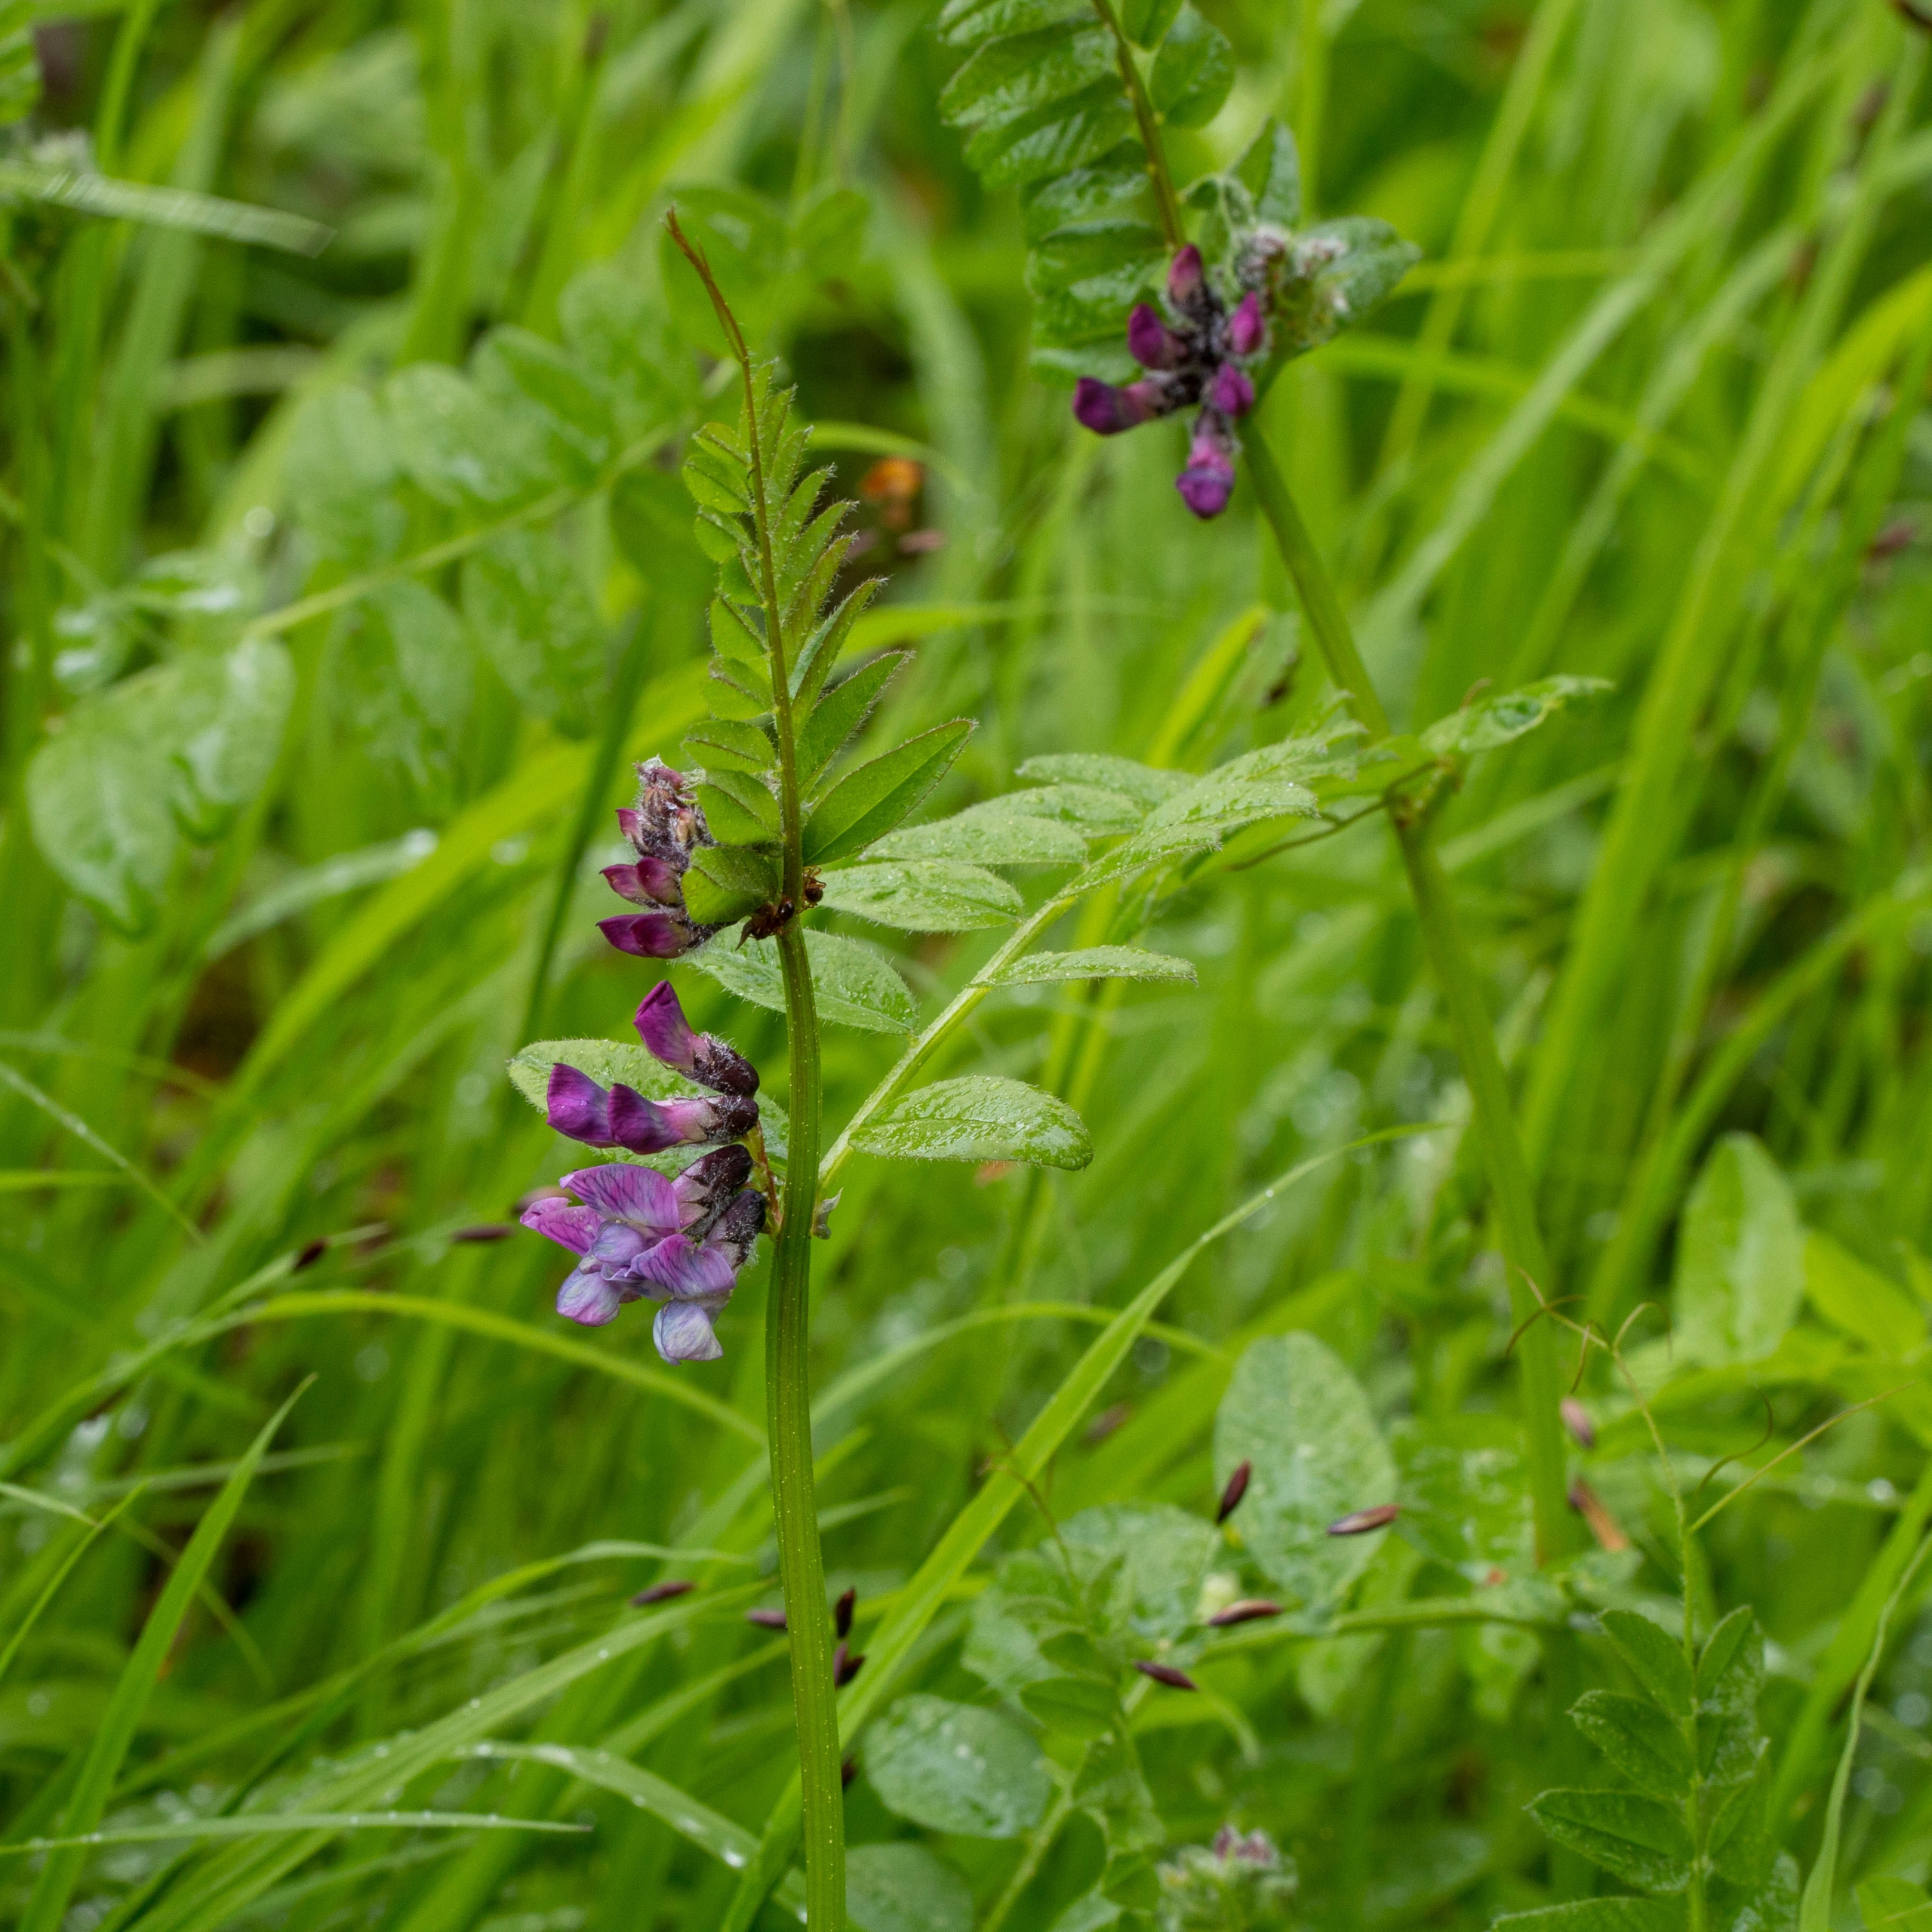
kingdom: Plantae
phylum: Tracheophyta
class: Magnoliopsida
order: Fabales
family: Fabaceae
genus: Vicia
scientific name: Vicia sepium
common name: Gærde-vikke
